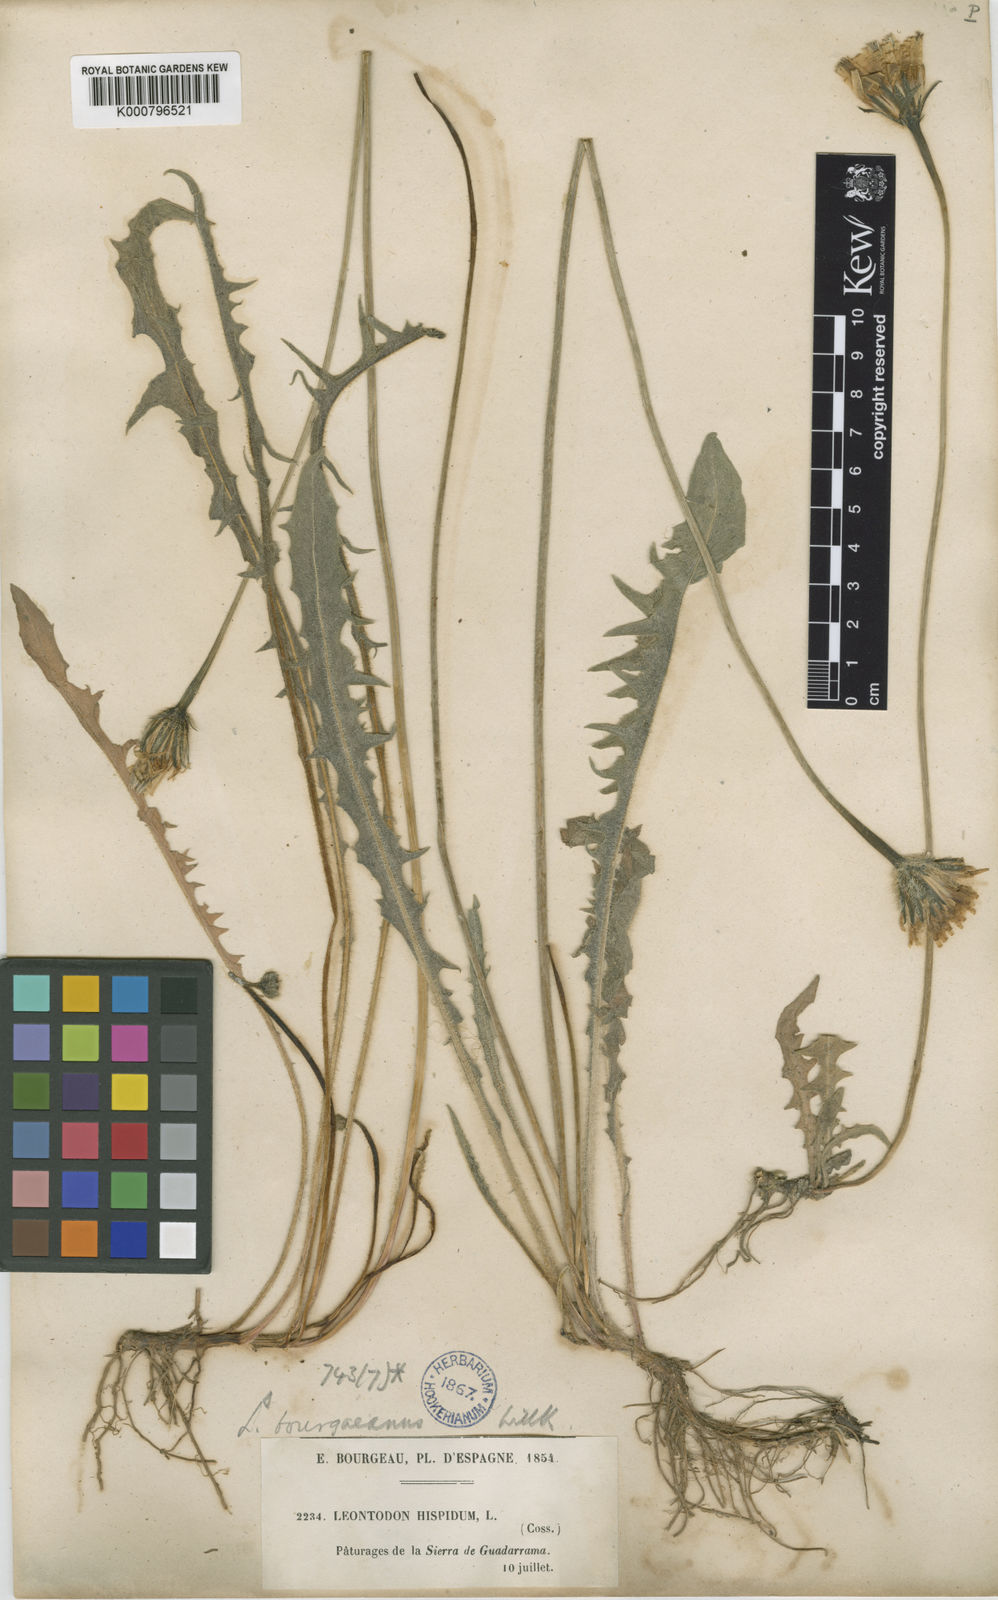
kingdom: Plantae
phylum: Tracheophyta
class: Magnoliopsida
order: Asterales
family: Asteraceae
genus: Leontodon
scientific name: Leontodon hispidus
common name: Rough hawkbit
